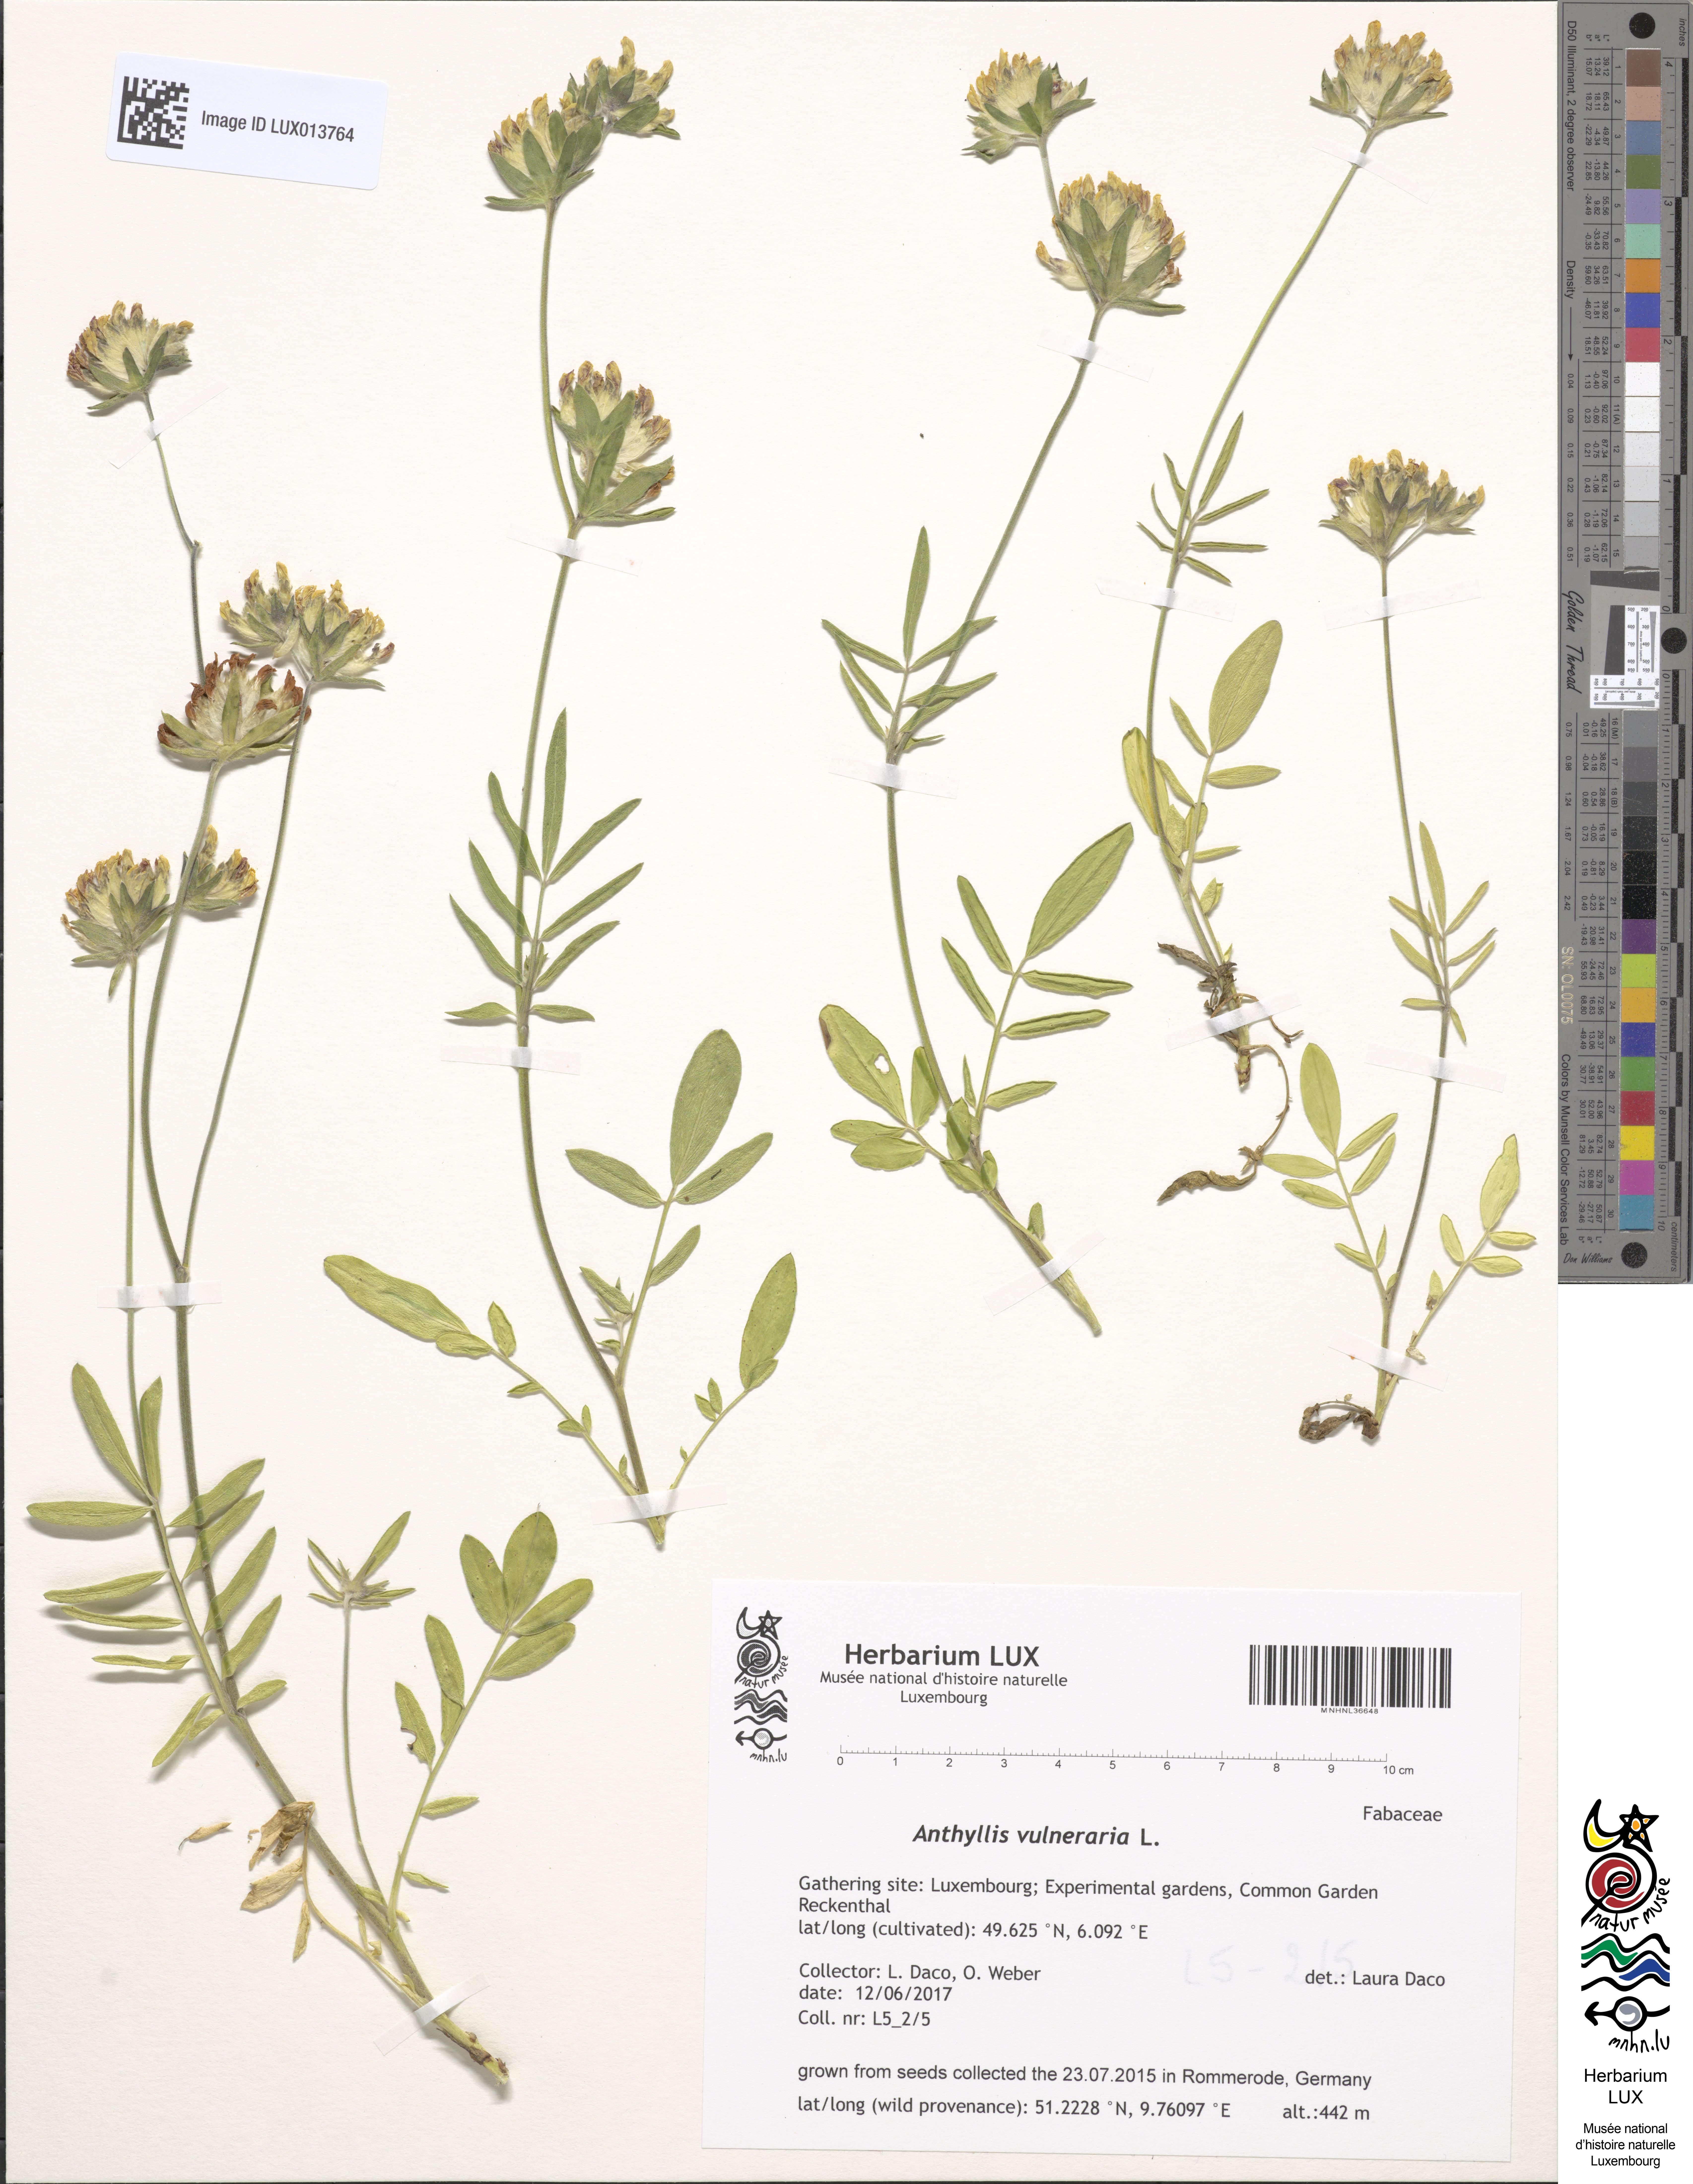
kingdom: Plantae
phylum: Tracheophyta
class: Magnoliopsida
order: Fabales
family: Fabaceae
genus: Anthyllis
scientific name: Anthyllis vulneraria
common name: Kidney vetch
